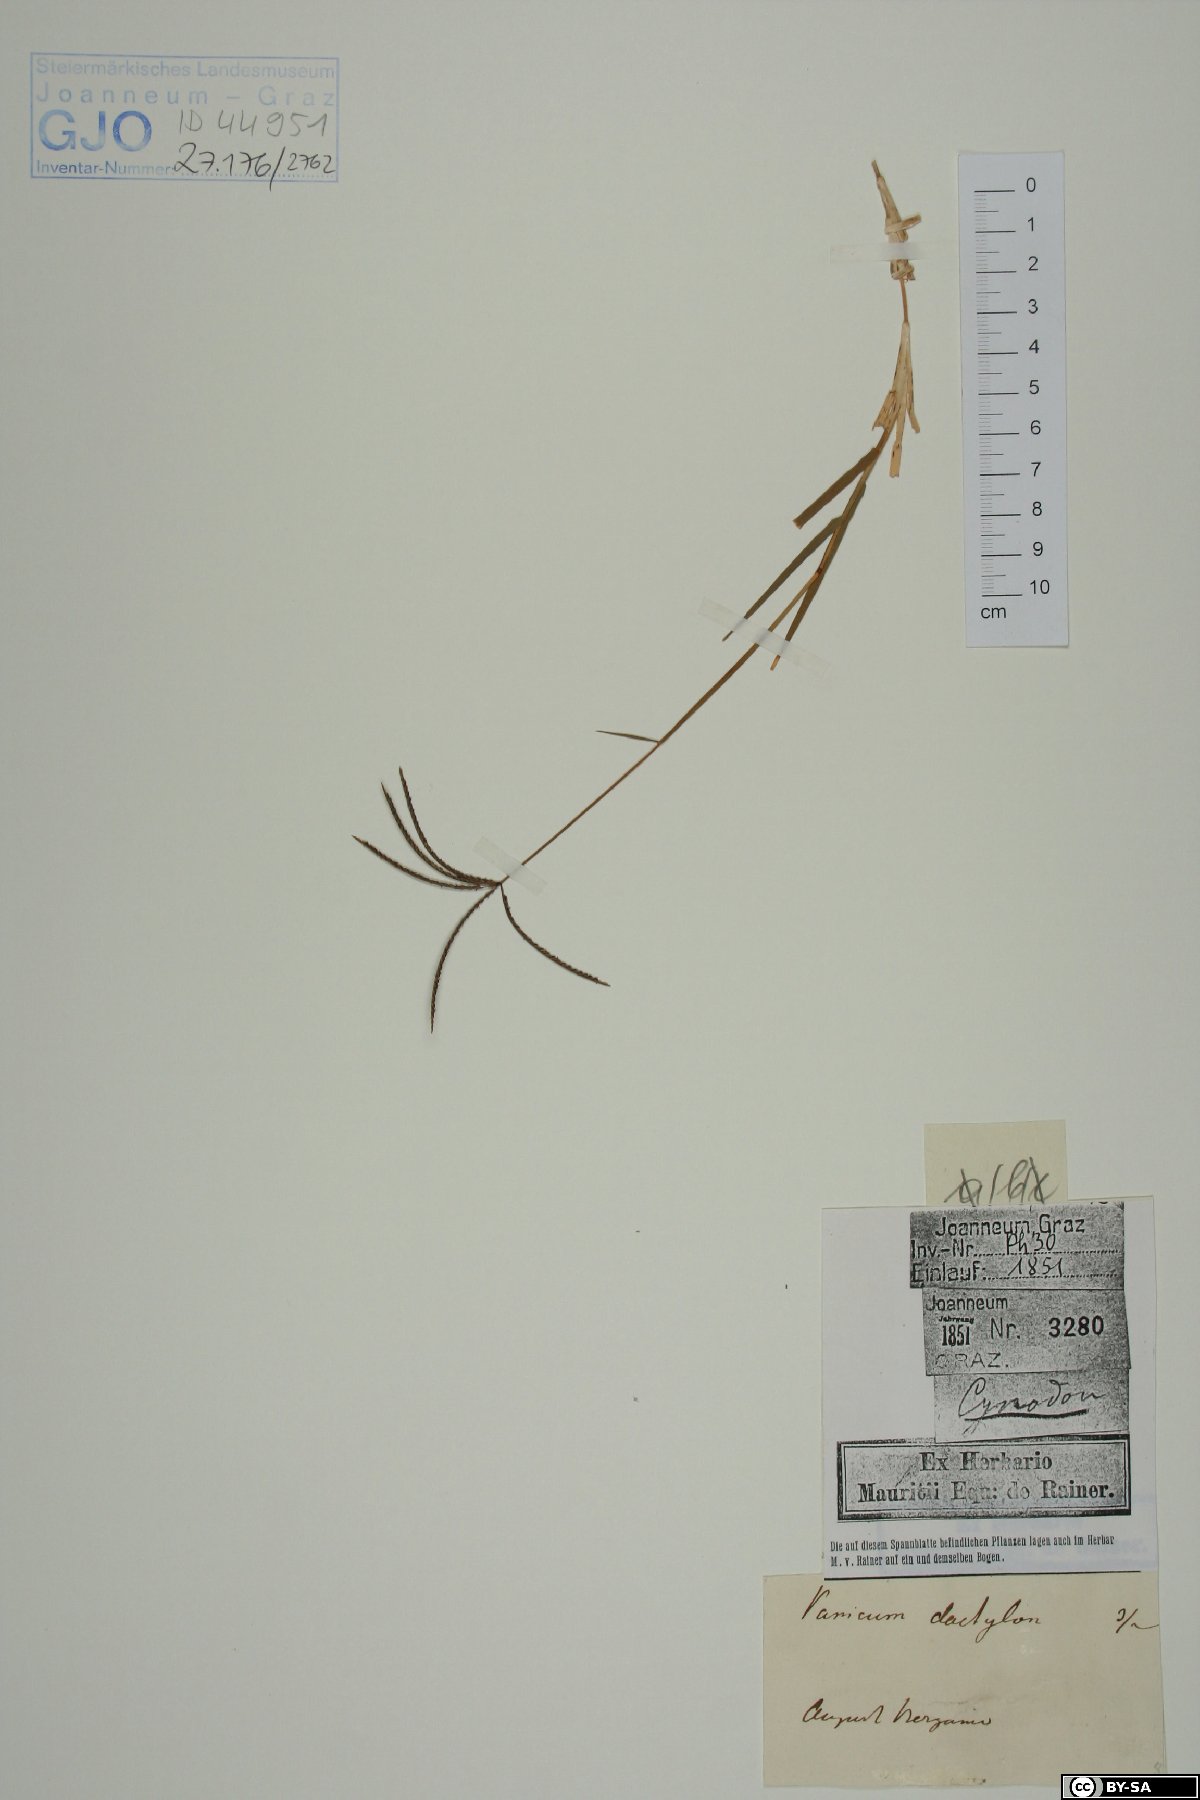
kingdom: Plantae
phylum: Tracheophyta
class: Liliopsida
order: Poales
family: Poaceae
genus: Cynodon
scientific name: Cynodon dactylon
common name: Bermuda grass
